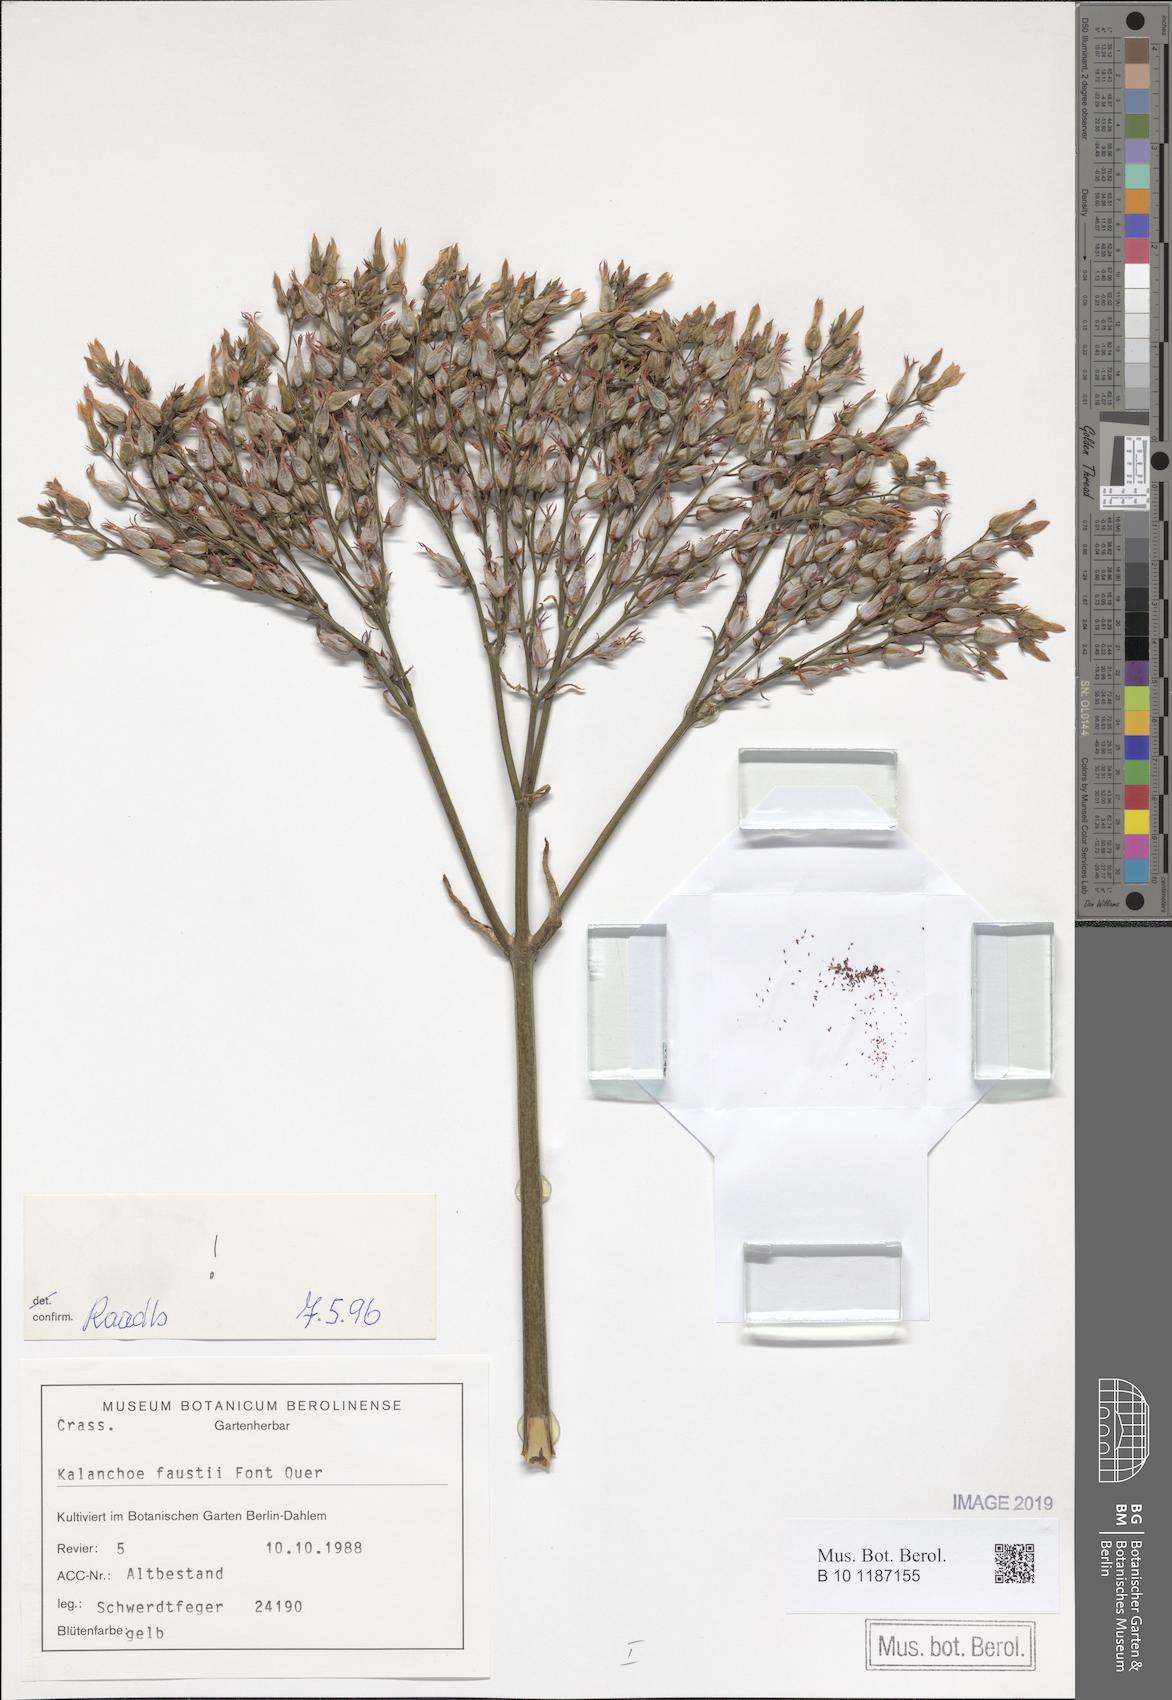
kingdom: Plantae
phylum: Tracheophyta
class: Magnoliopsida
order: Saxifragales
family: Crassulaceae
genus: Kalanchoe
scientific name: Kalanchoe faustii
